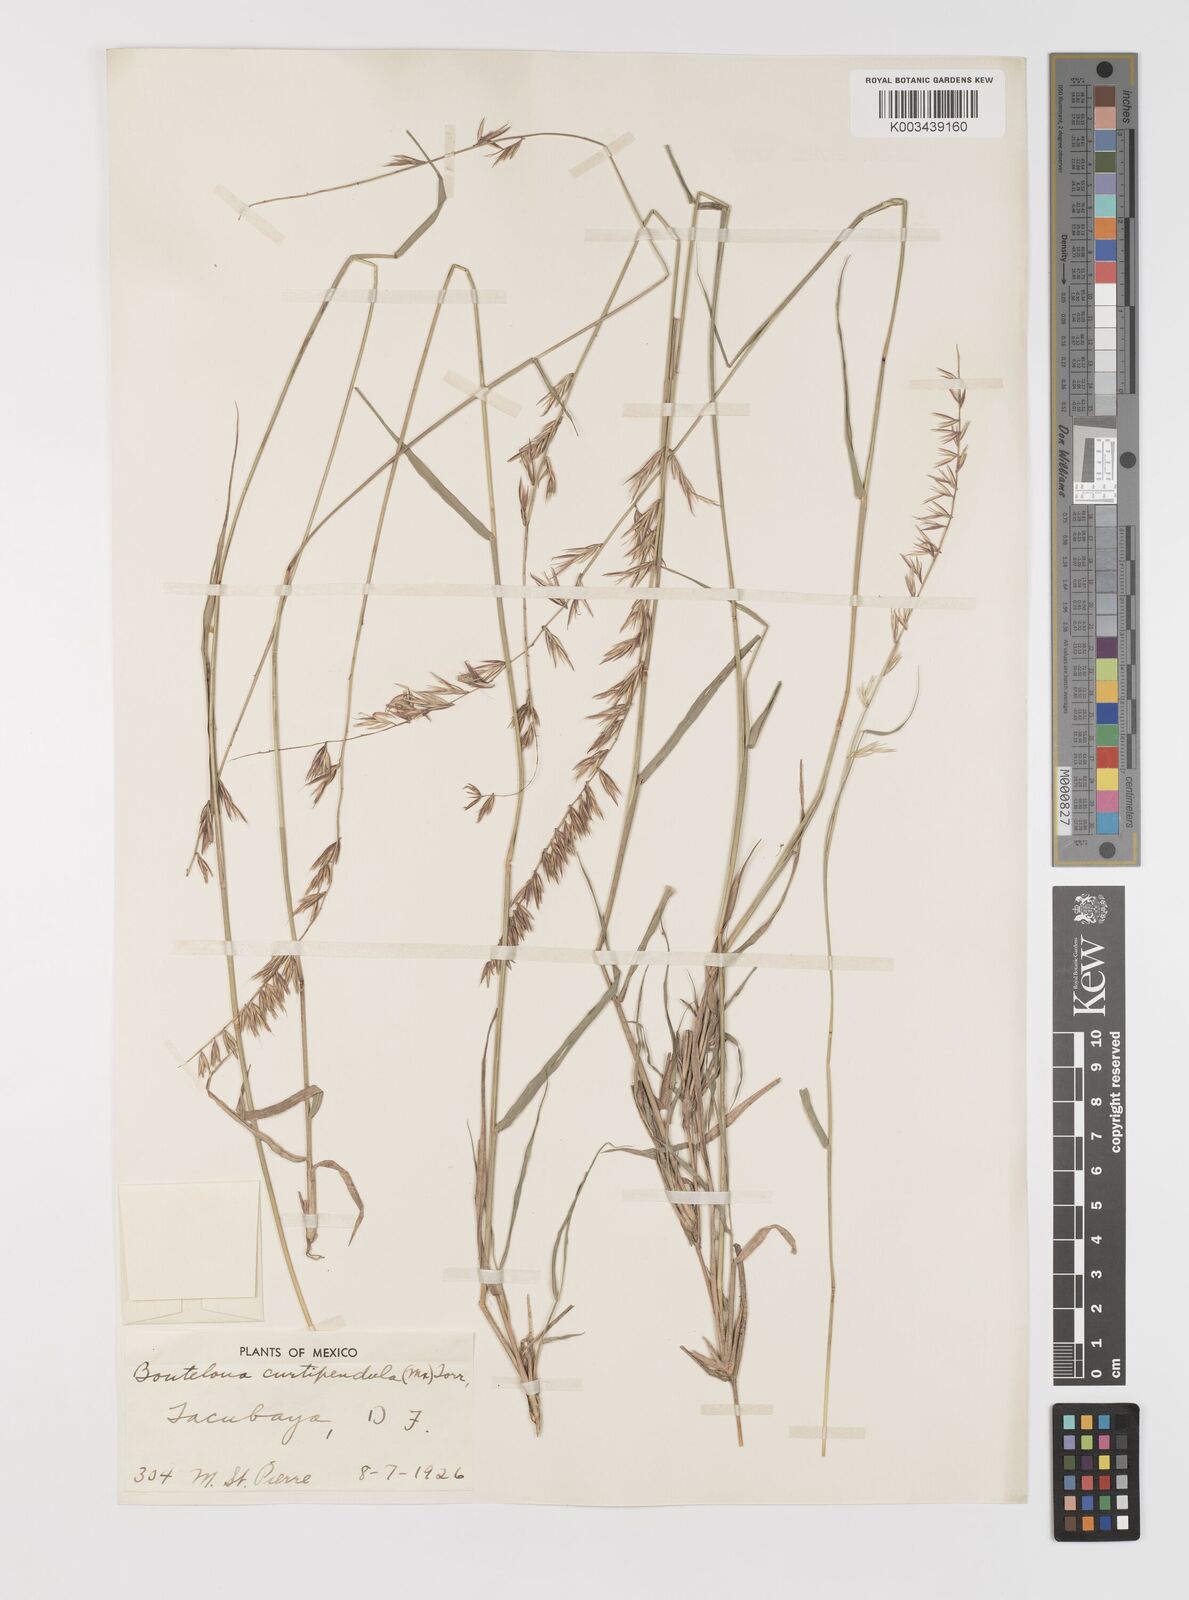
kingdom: Plantae
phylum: Tracheophyta
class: Liliopsida
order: Poales
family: Poaceae
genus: Bouteloua
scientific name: Bouteloua curtipendula
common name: Side-oats grama
